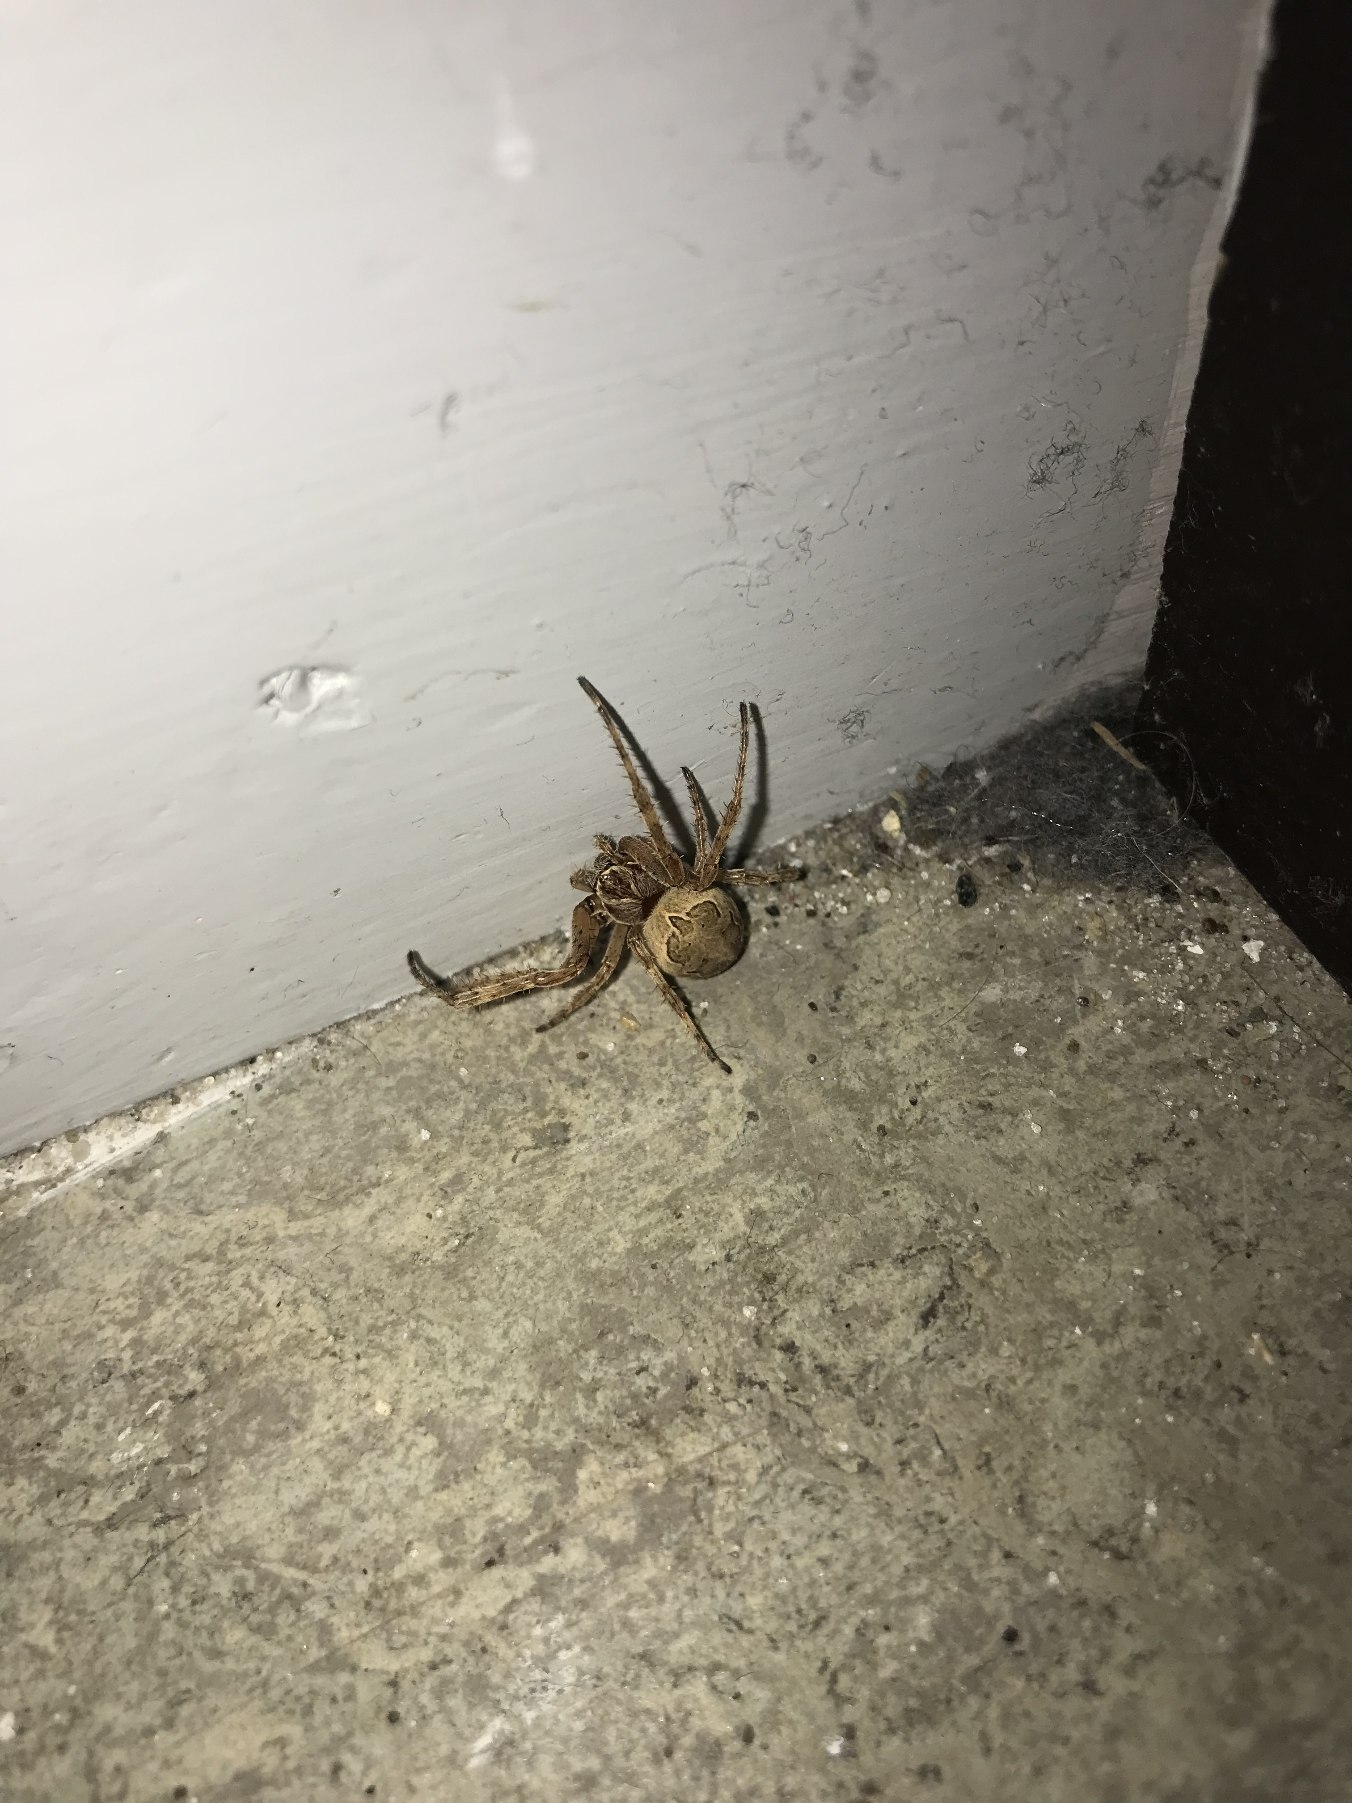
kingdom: Animalia
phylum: Arthropoda
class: Arachnida
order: Araneae
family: Araneidae
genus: Larinioides
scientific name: Larinioides
